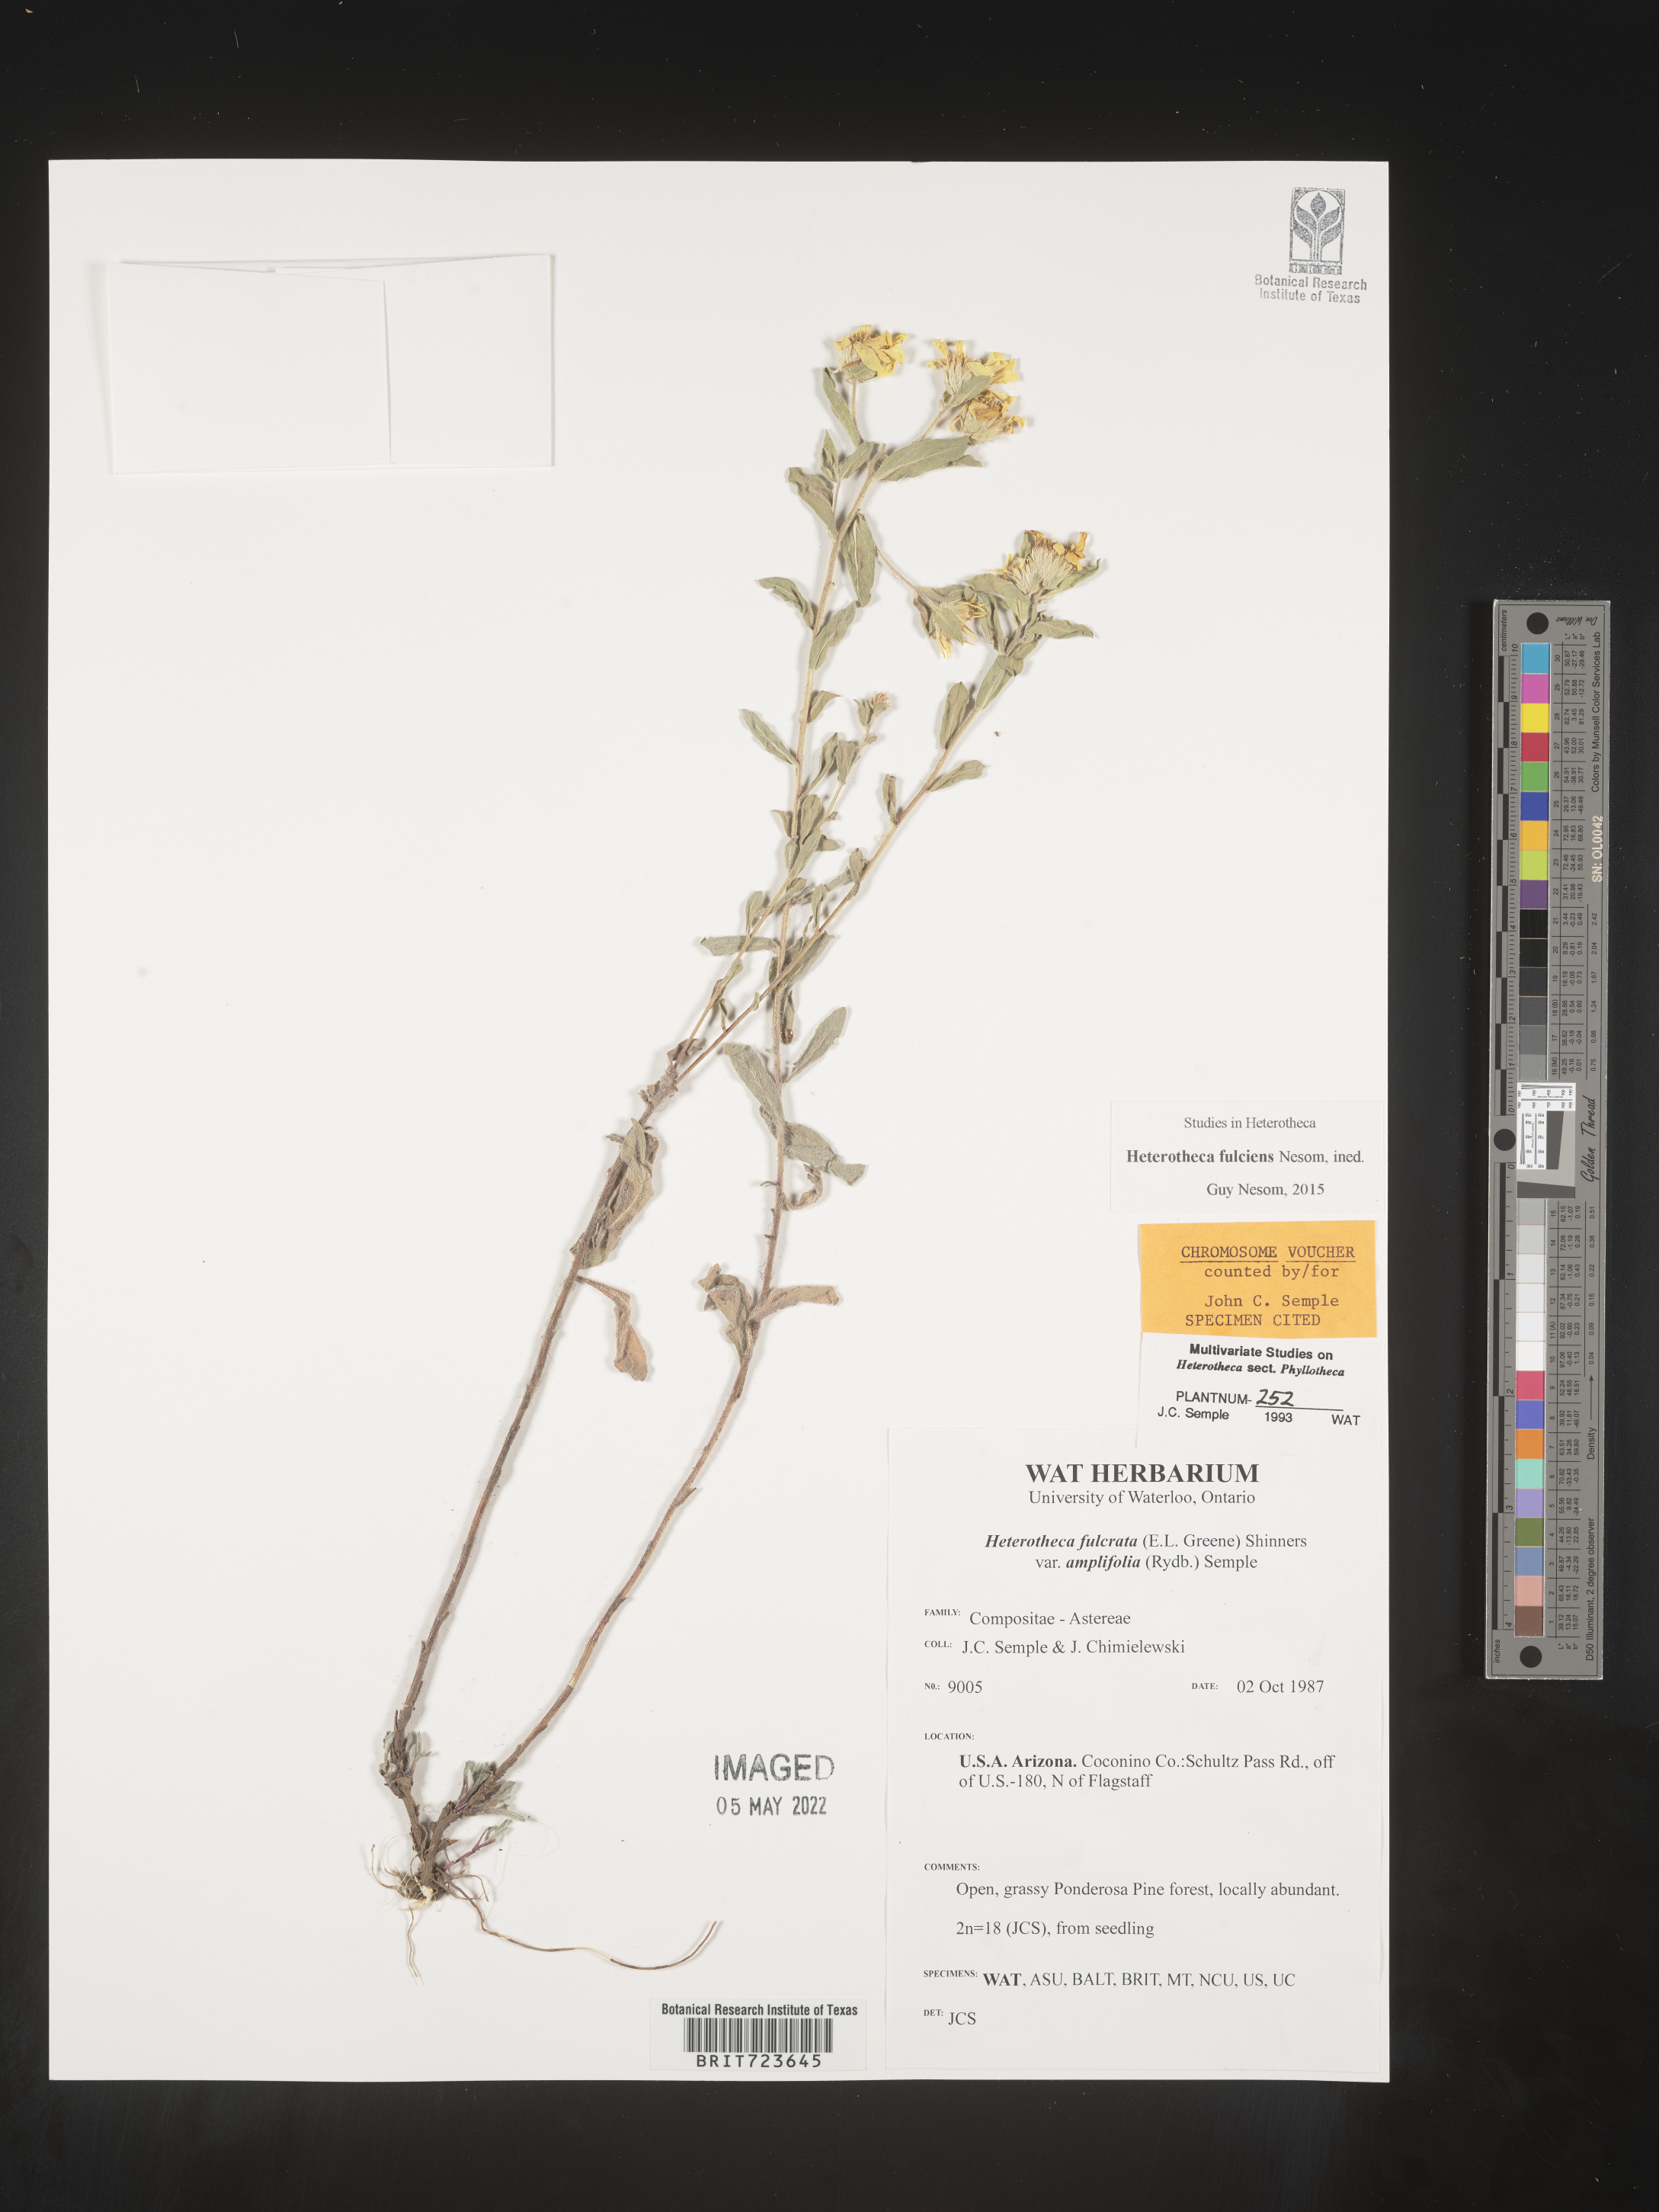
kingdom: Plantae
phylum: Tracheophyta
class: Magnoliopsida
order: Asterales
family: Asteraceae
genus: Heterotheca
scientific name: Heterotheca fulciens
